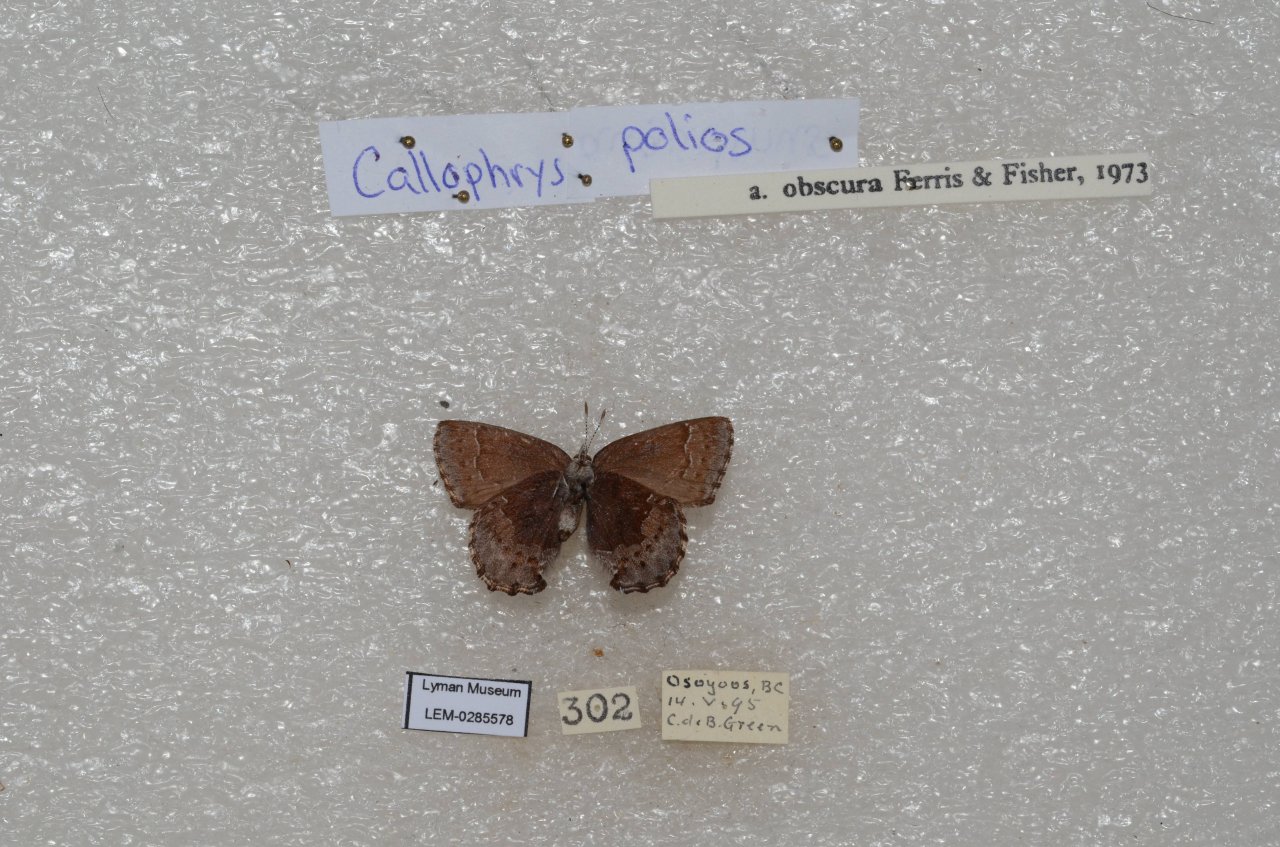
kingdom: Animalia
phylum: Arthropoda
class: Insecta
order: Lepidoptera
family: Lycaenidae
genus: Callophrys
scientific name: Callophrys polios
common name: Hoary Elfin
